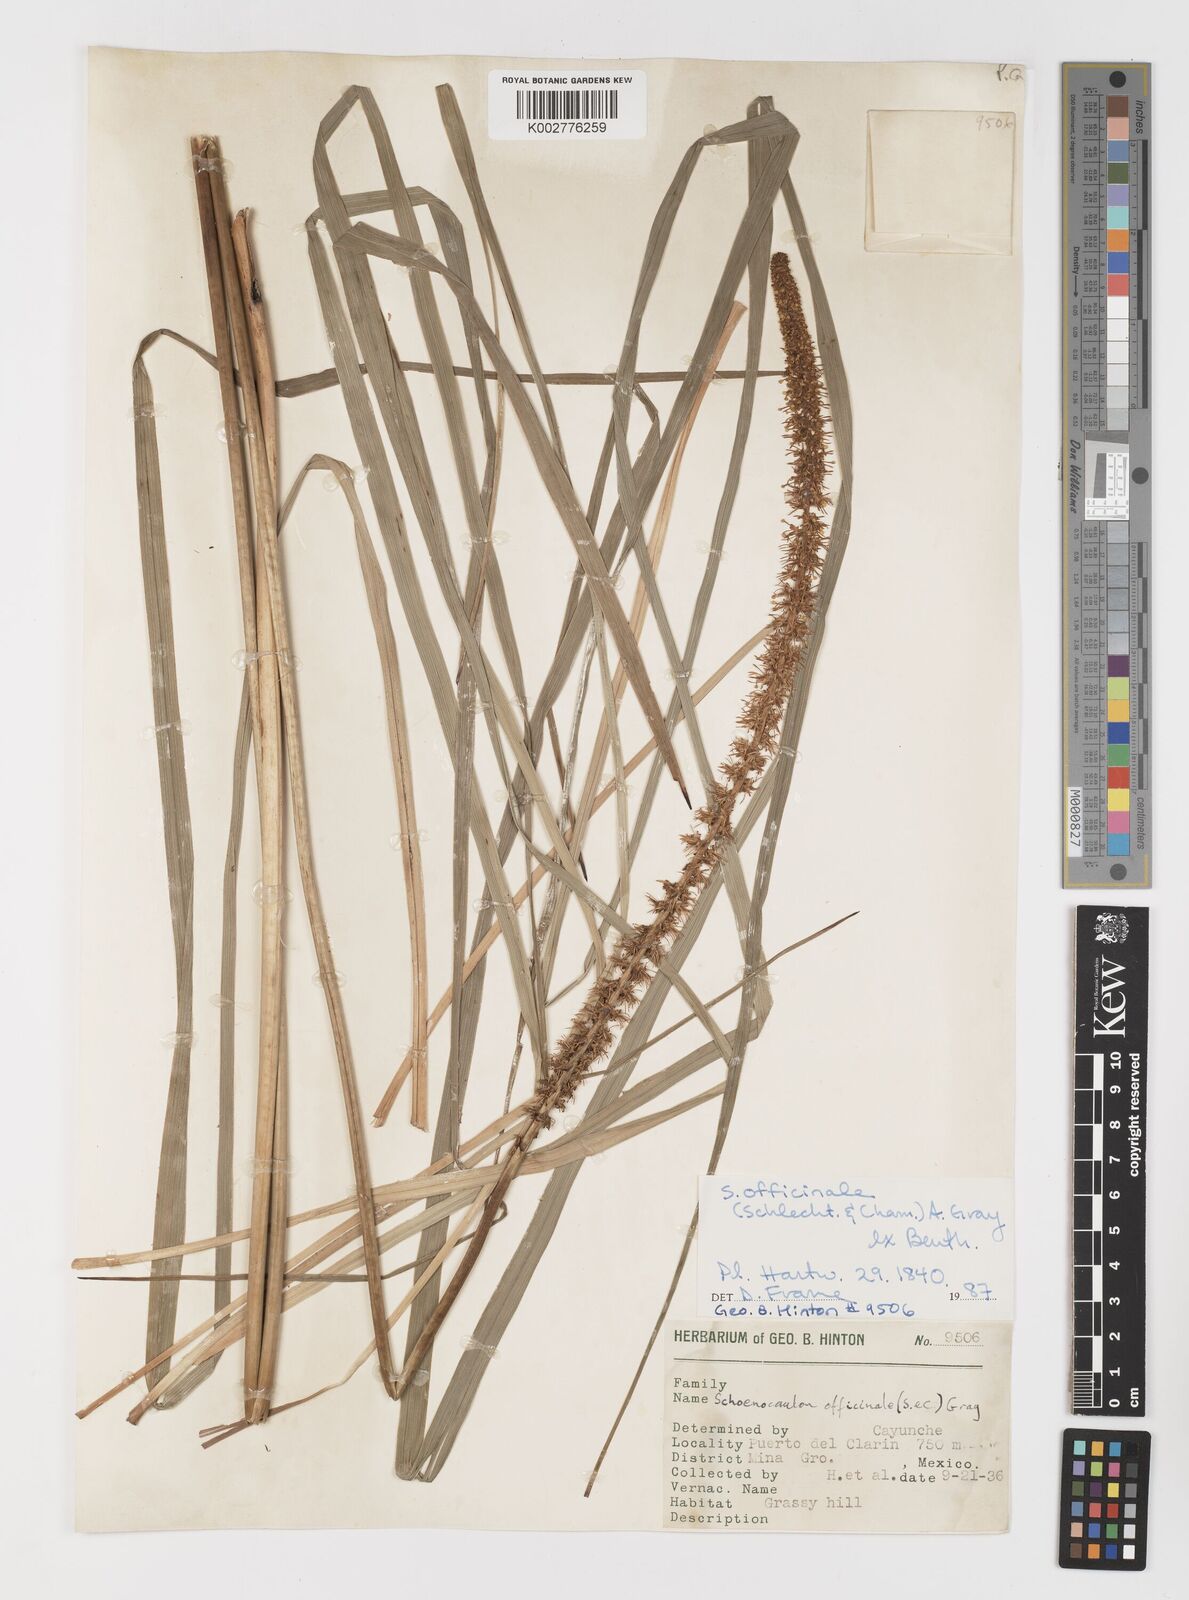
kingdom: Plantae
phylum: Tracheophyta
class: Liliopsida
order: Liliales
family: Melanthiaceae
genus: Schoenocaulon
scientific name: Schoenocaulon officinale
